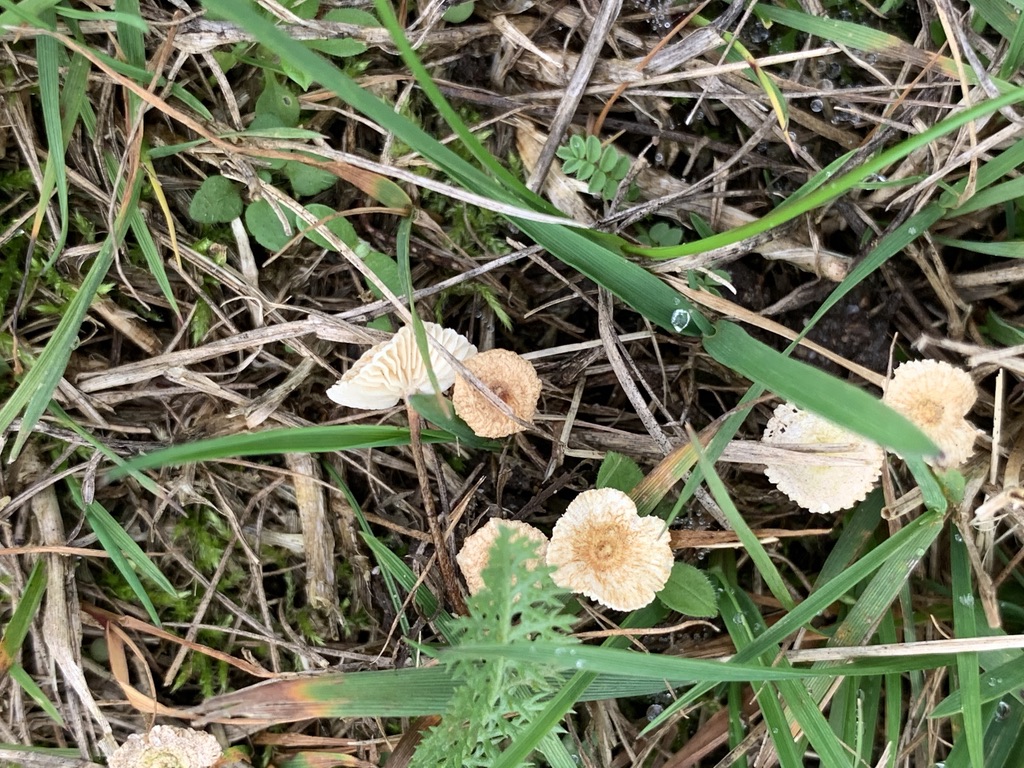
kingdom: Fungi
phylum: Basidiomycota
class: Agaricomycetes
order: Agaricales
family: Marasmiaceae
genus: Crinipellis
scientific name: Crinipellis scabella
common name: børstefod
